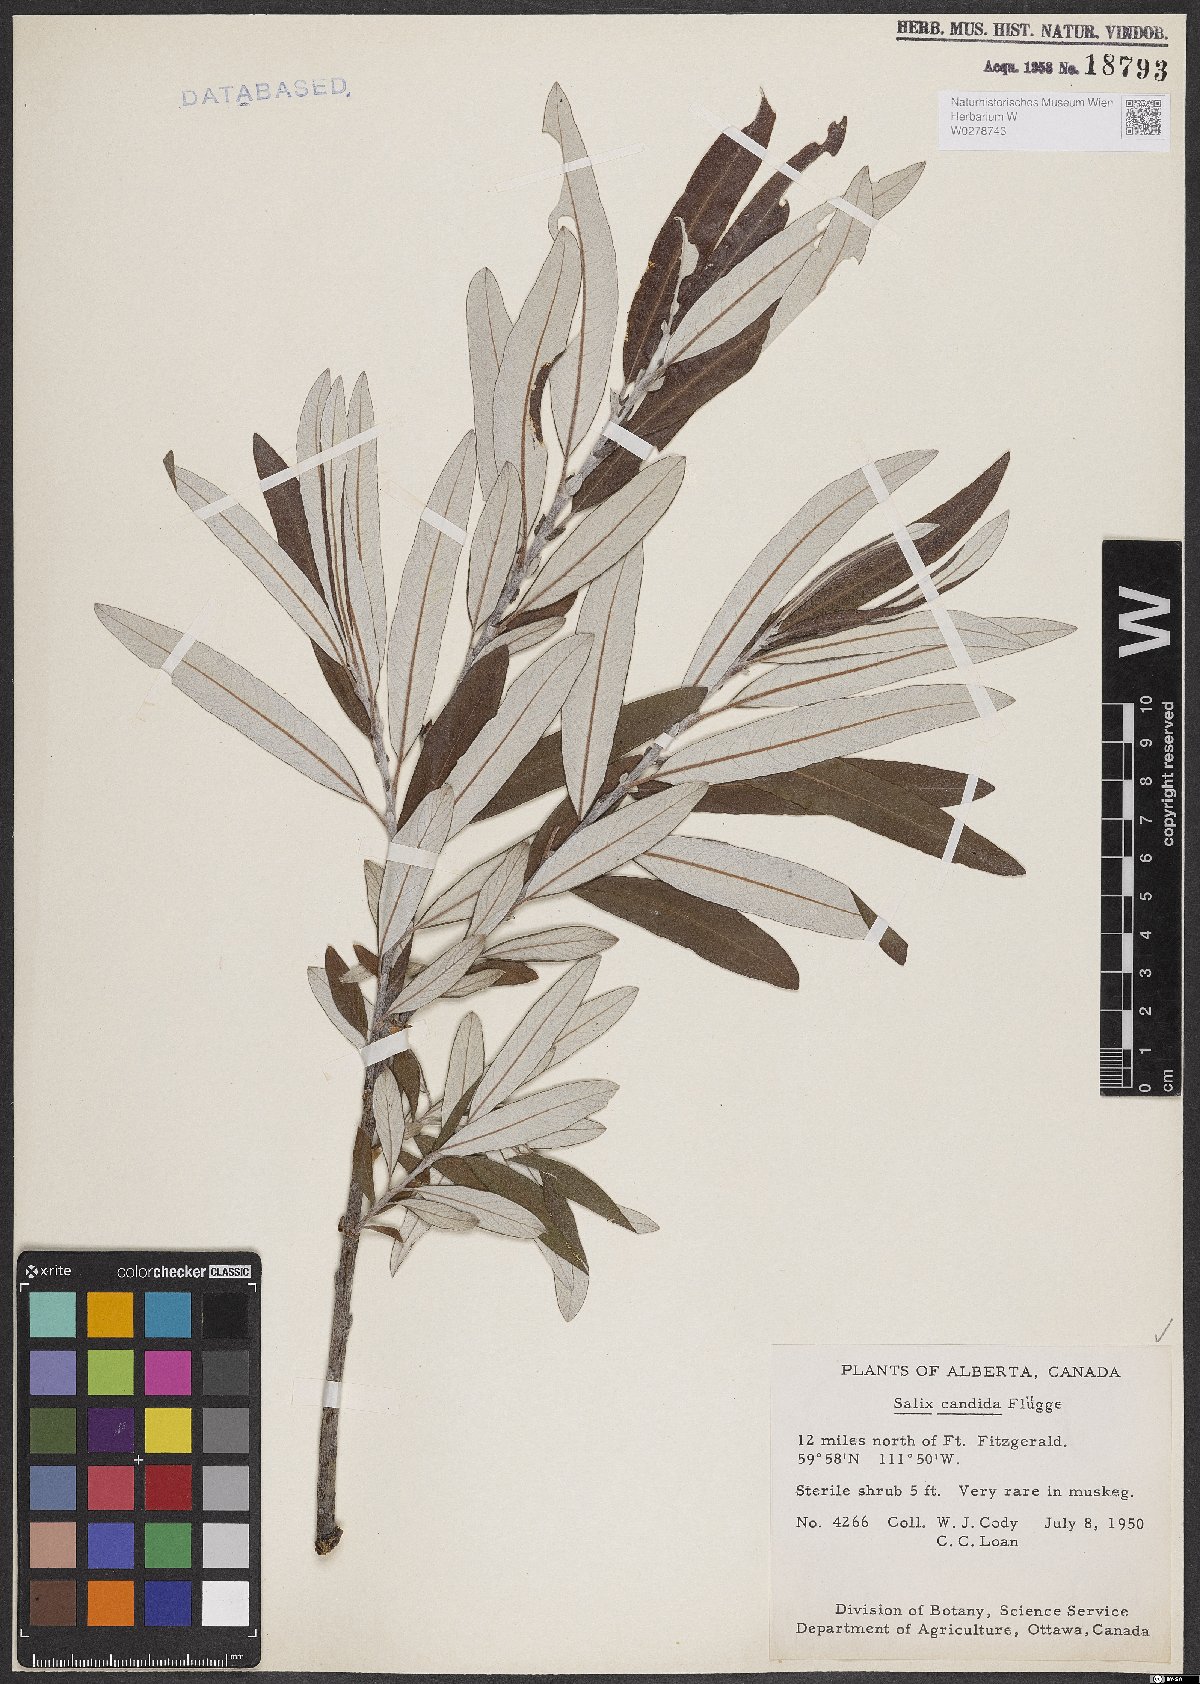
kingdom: Plantae
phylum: Tracheophyta
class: Magnoliopsida
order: Malpighiales
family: Salicaceae
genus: Salix
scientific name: Salix candida
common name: Hoary willow
